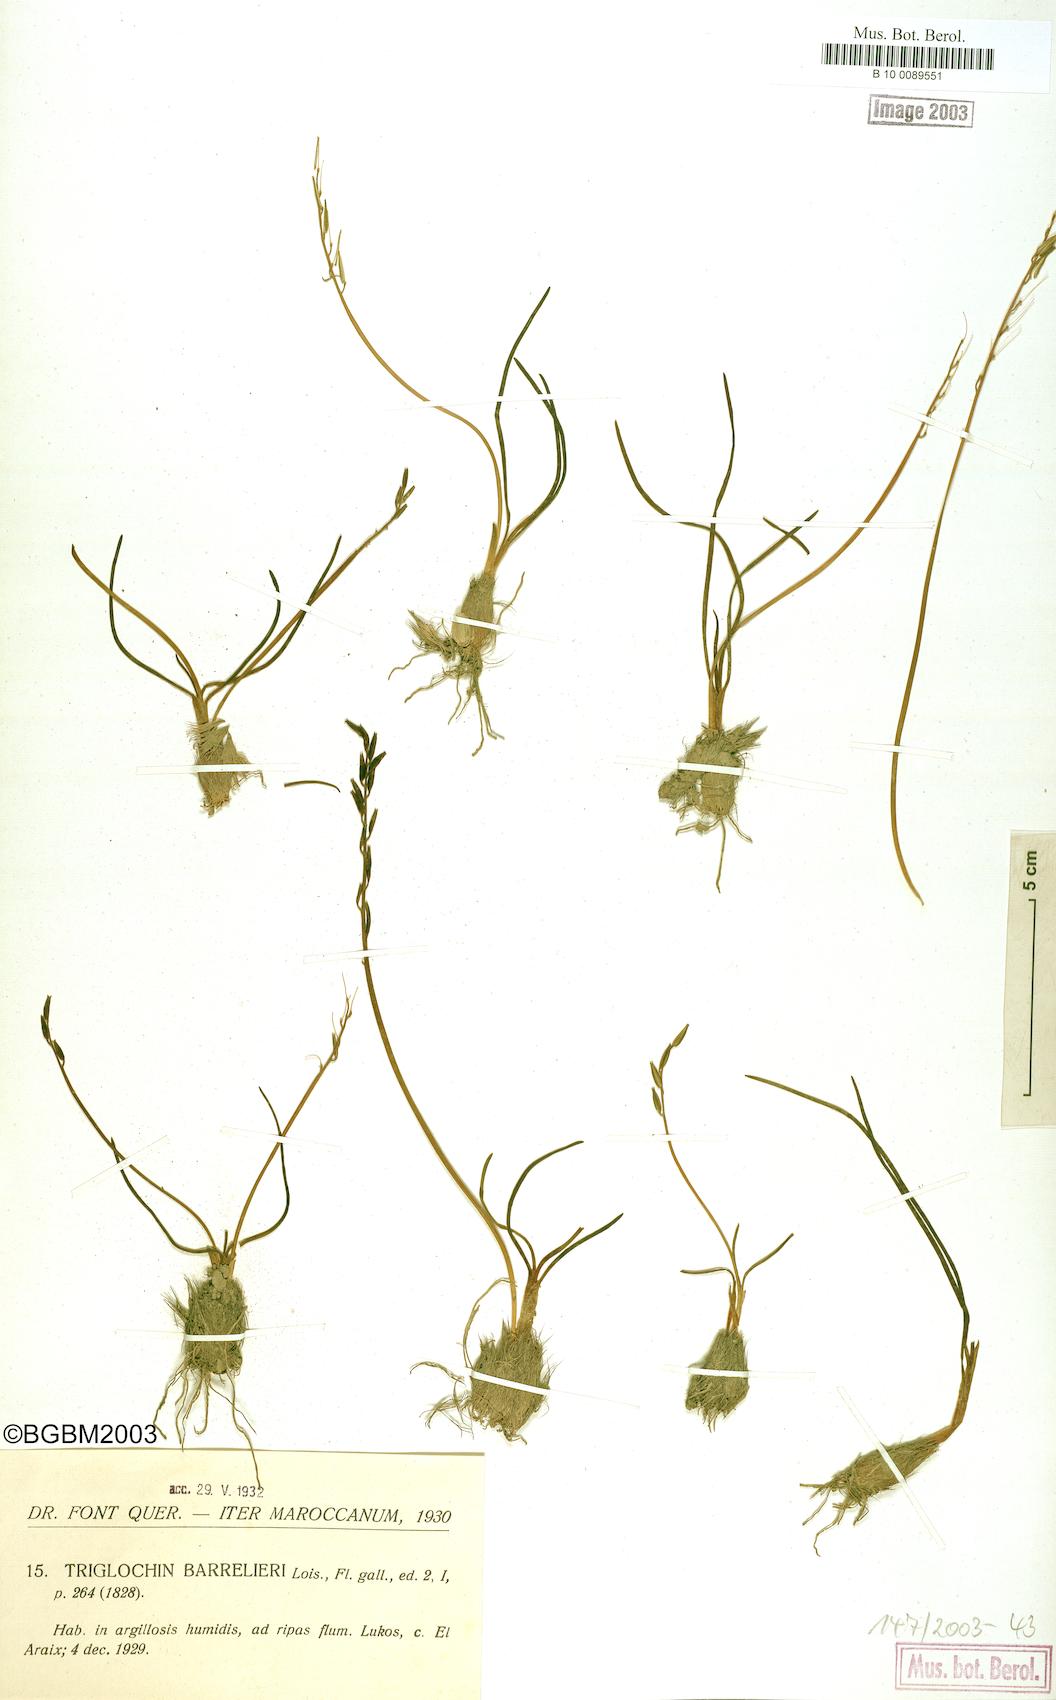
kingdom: Plantae
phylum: Tracheophyta
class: Liliopsida
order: Alismatales
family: Juncaginaceae
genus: Triglochin
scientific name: Triglochin bulbosa
